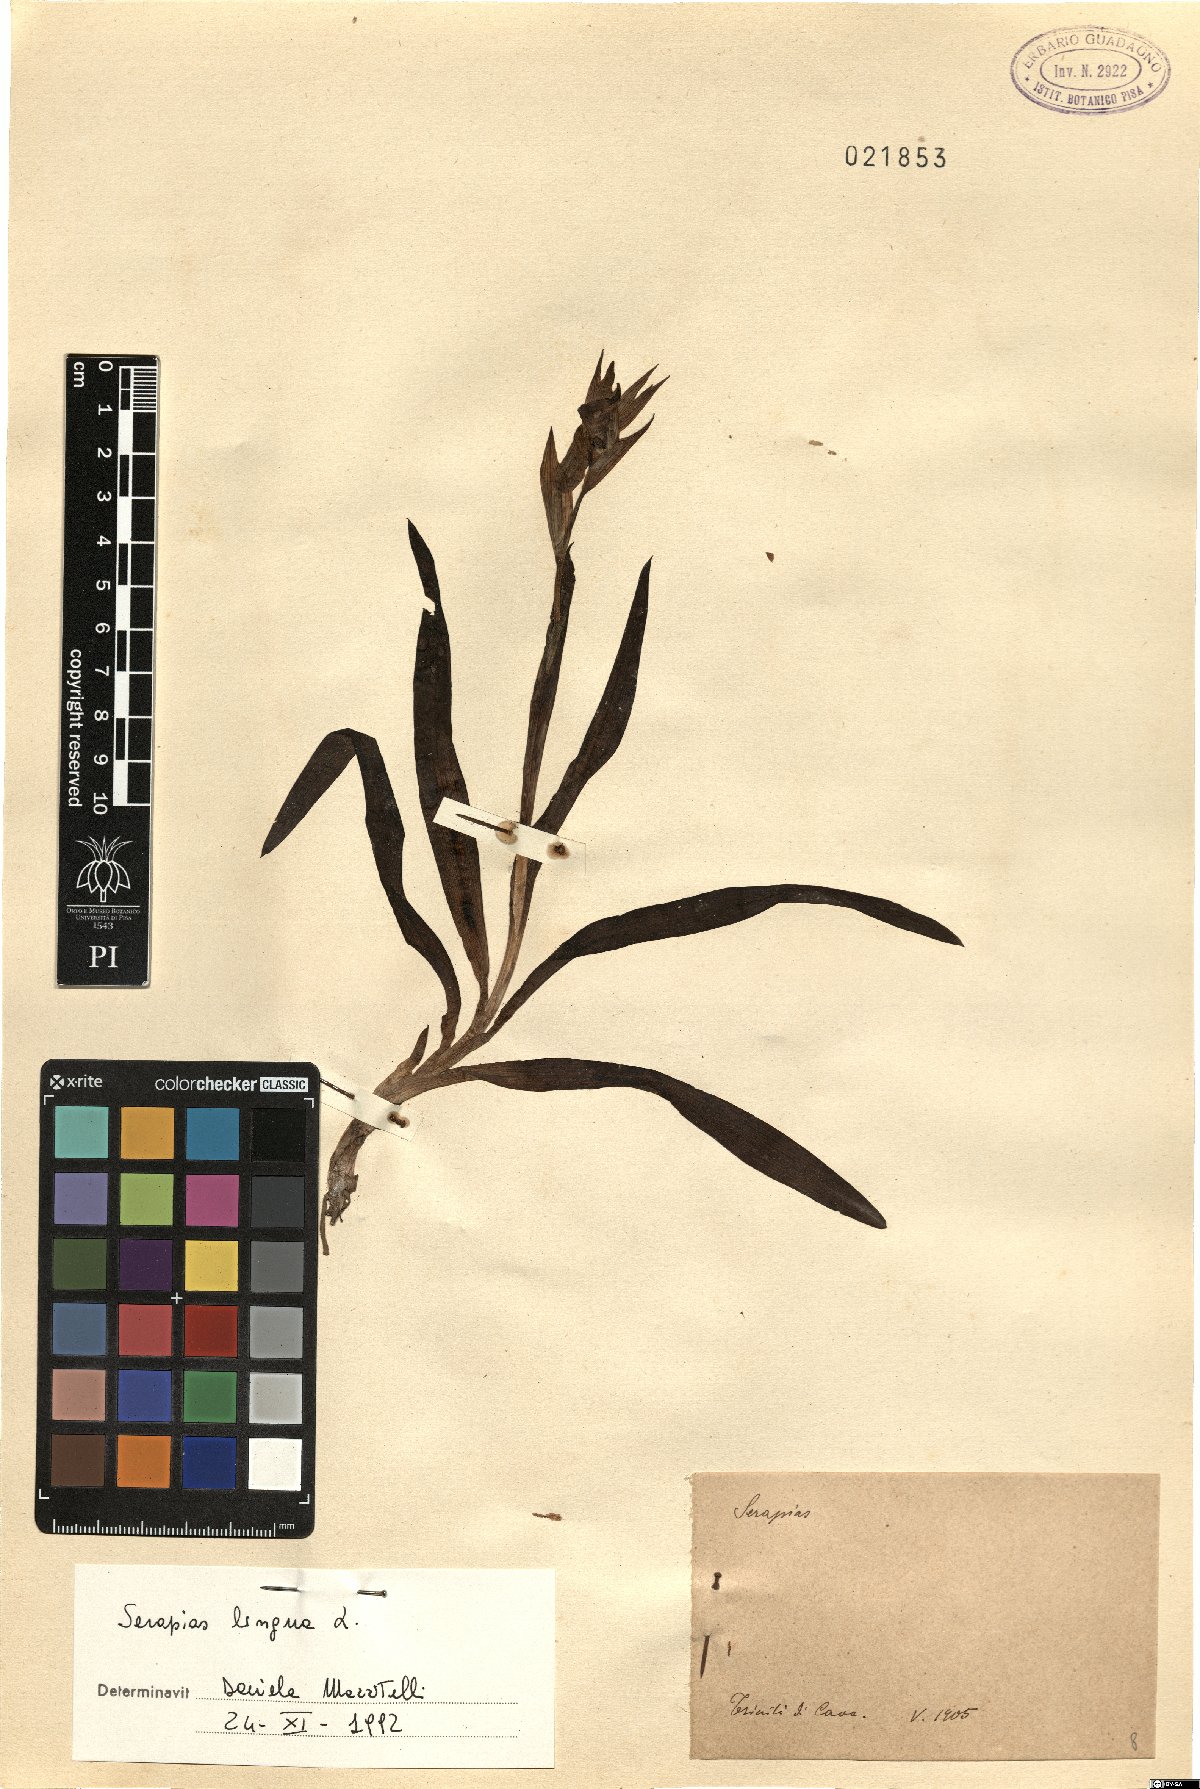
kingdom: Plantae
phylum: Tracheophyta
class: Liliopsida
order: Asparagales
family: Orchidaceae
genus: Serapias
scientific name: Serapias lingua
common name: Tongue-orchid
